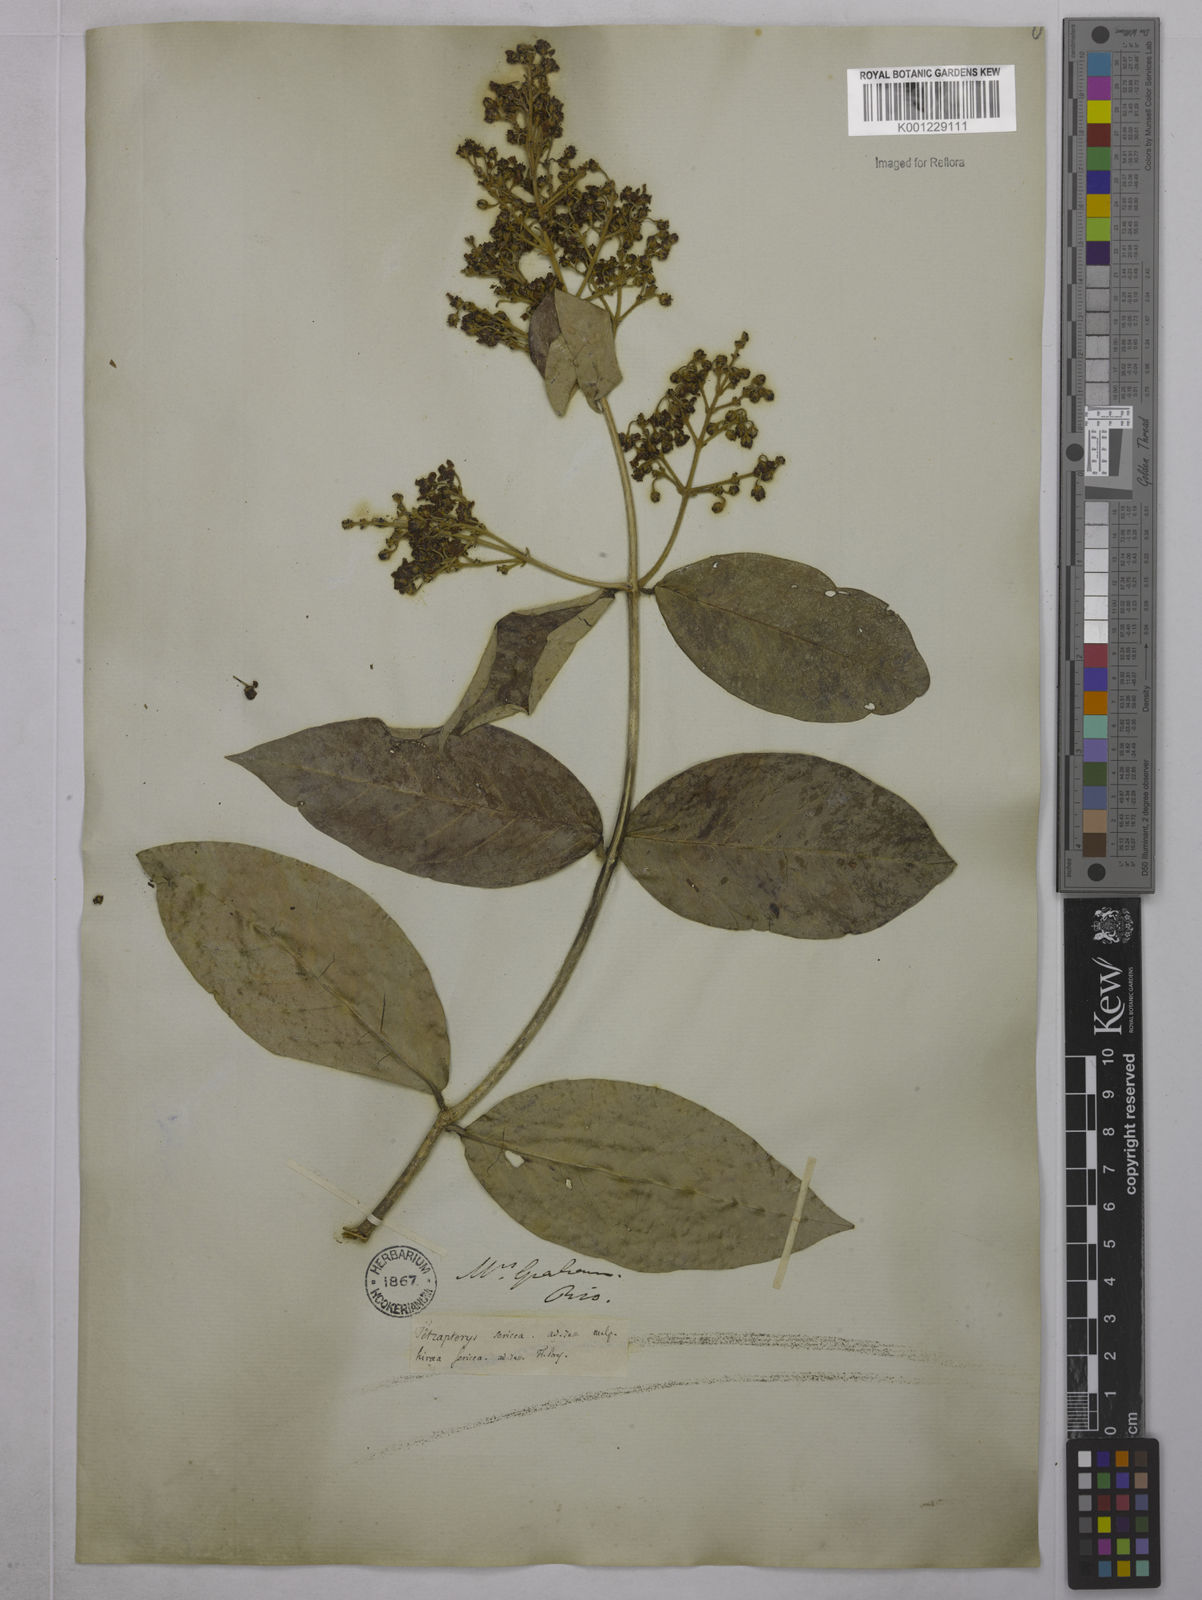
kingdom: Plantae
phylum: Tracheophyta
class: Magnoliopsida
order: Malpighiales
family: Malpighiaceae
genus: Niedenzuella
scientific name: Niedenzuella sericea
